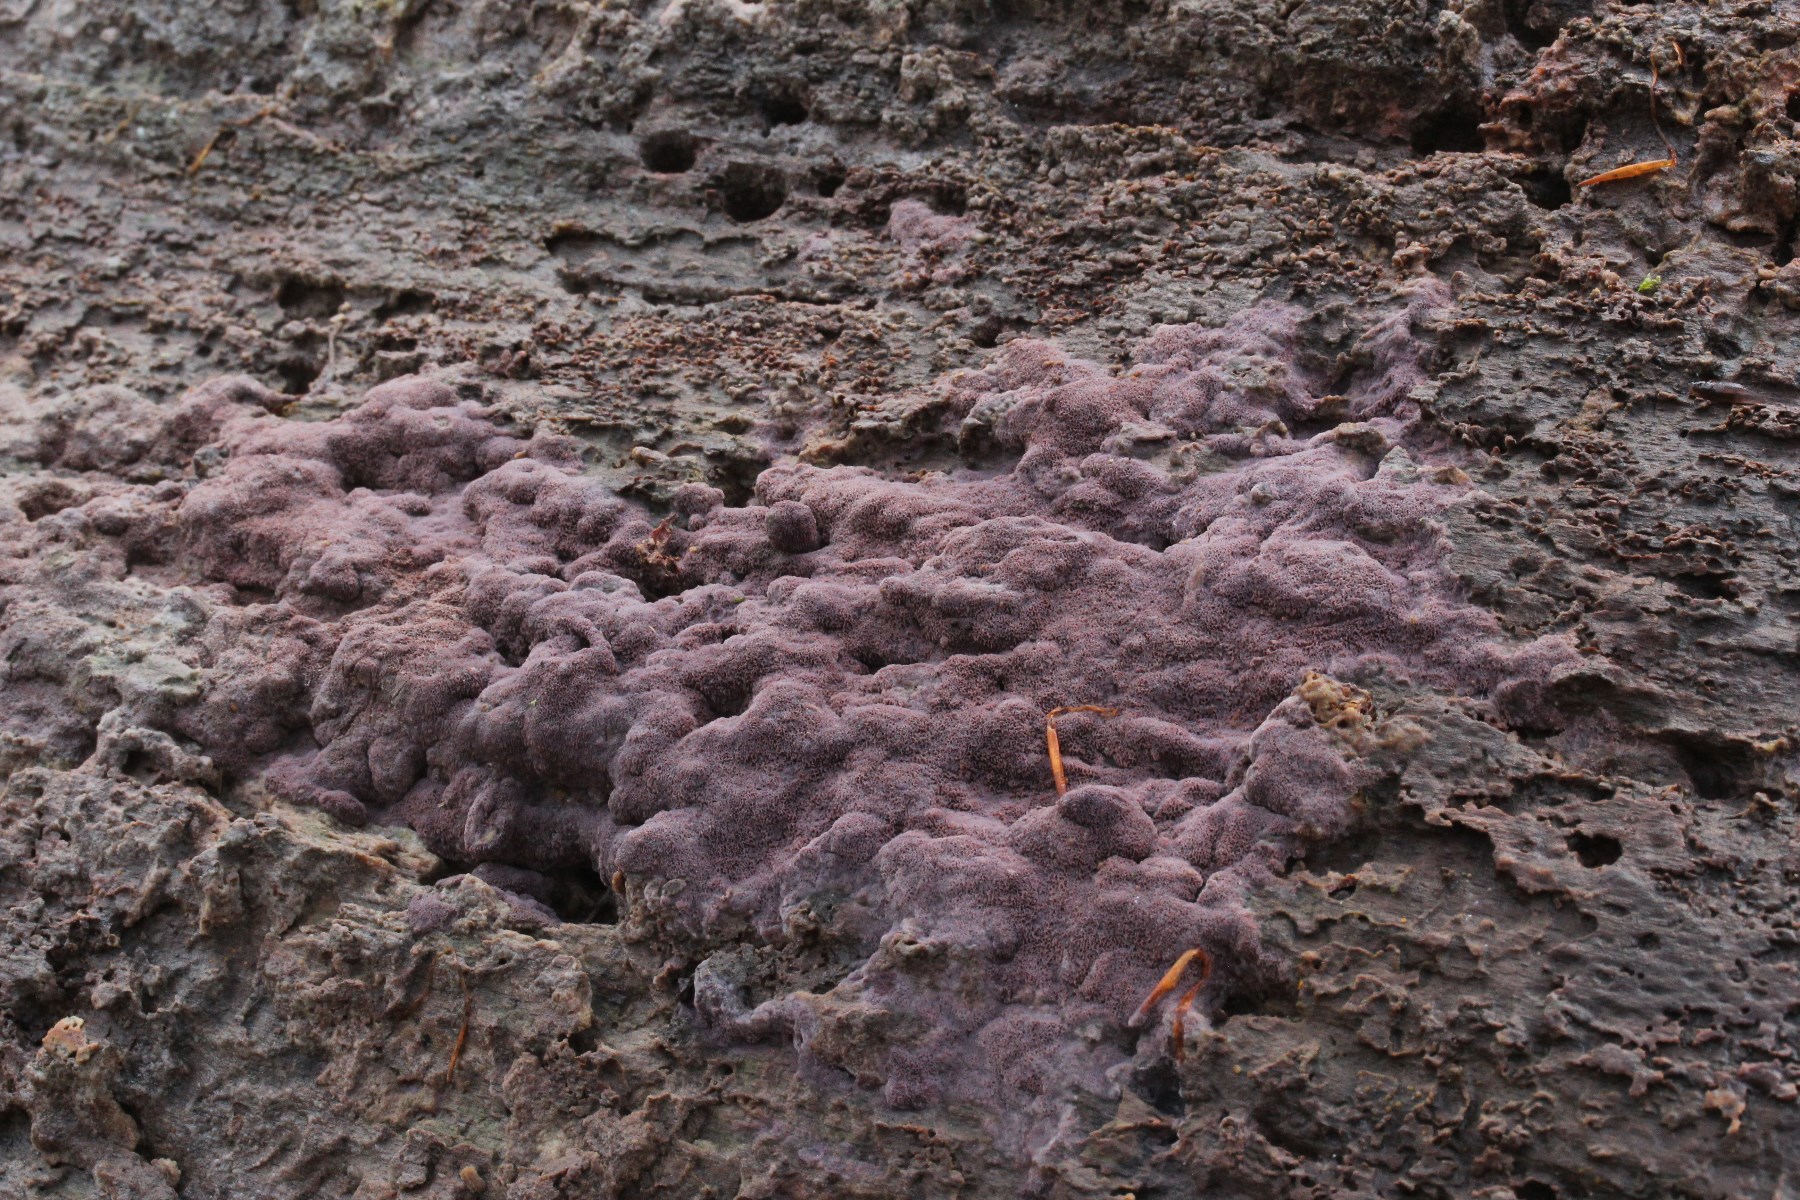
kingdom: Fungi
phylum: Basidiomycota
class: Agaricomycetes
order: Polyporales
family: Irpicaceae
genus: Ceriporia
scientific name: Ceriporia excelsa
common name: lilla voksporesvamp
